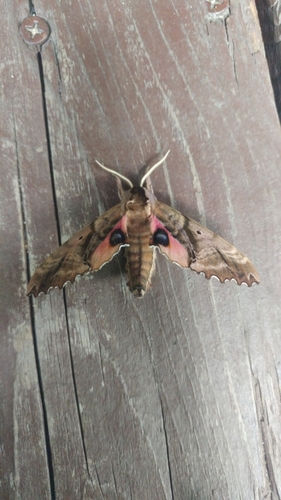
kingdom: Animalia
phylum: Arthropoda
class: Insecta
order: Lepidoptera
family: Sphingidae
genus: Paonias
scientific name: Paonias excaecata
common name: Blind-eyed sphinx
